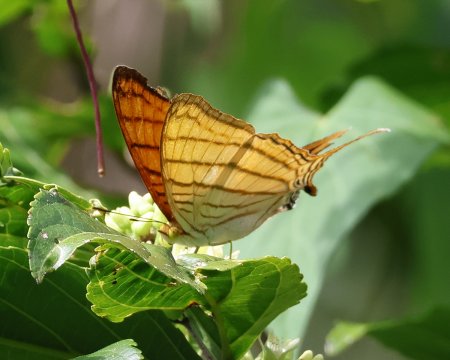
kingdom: Animalia
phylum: Arthropoda
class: Insecta
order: Lepidoptera
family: Nymphalidae
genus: Marpesia
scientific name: Marpesia berania
